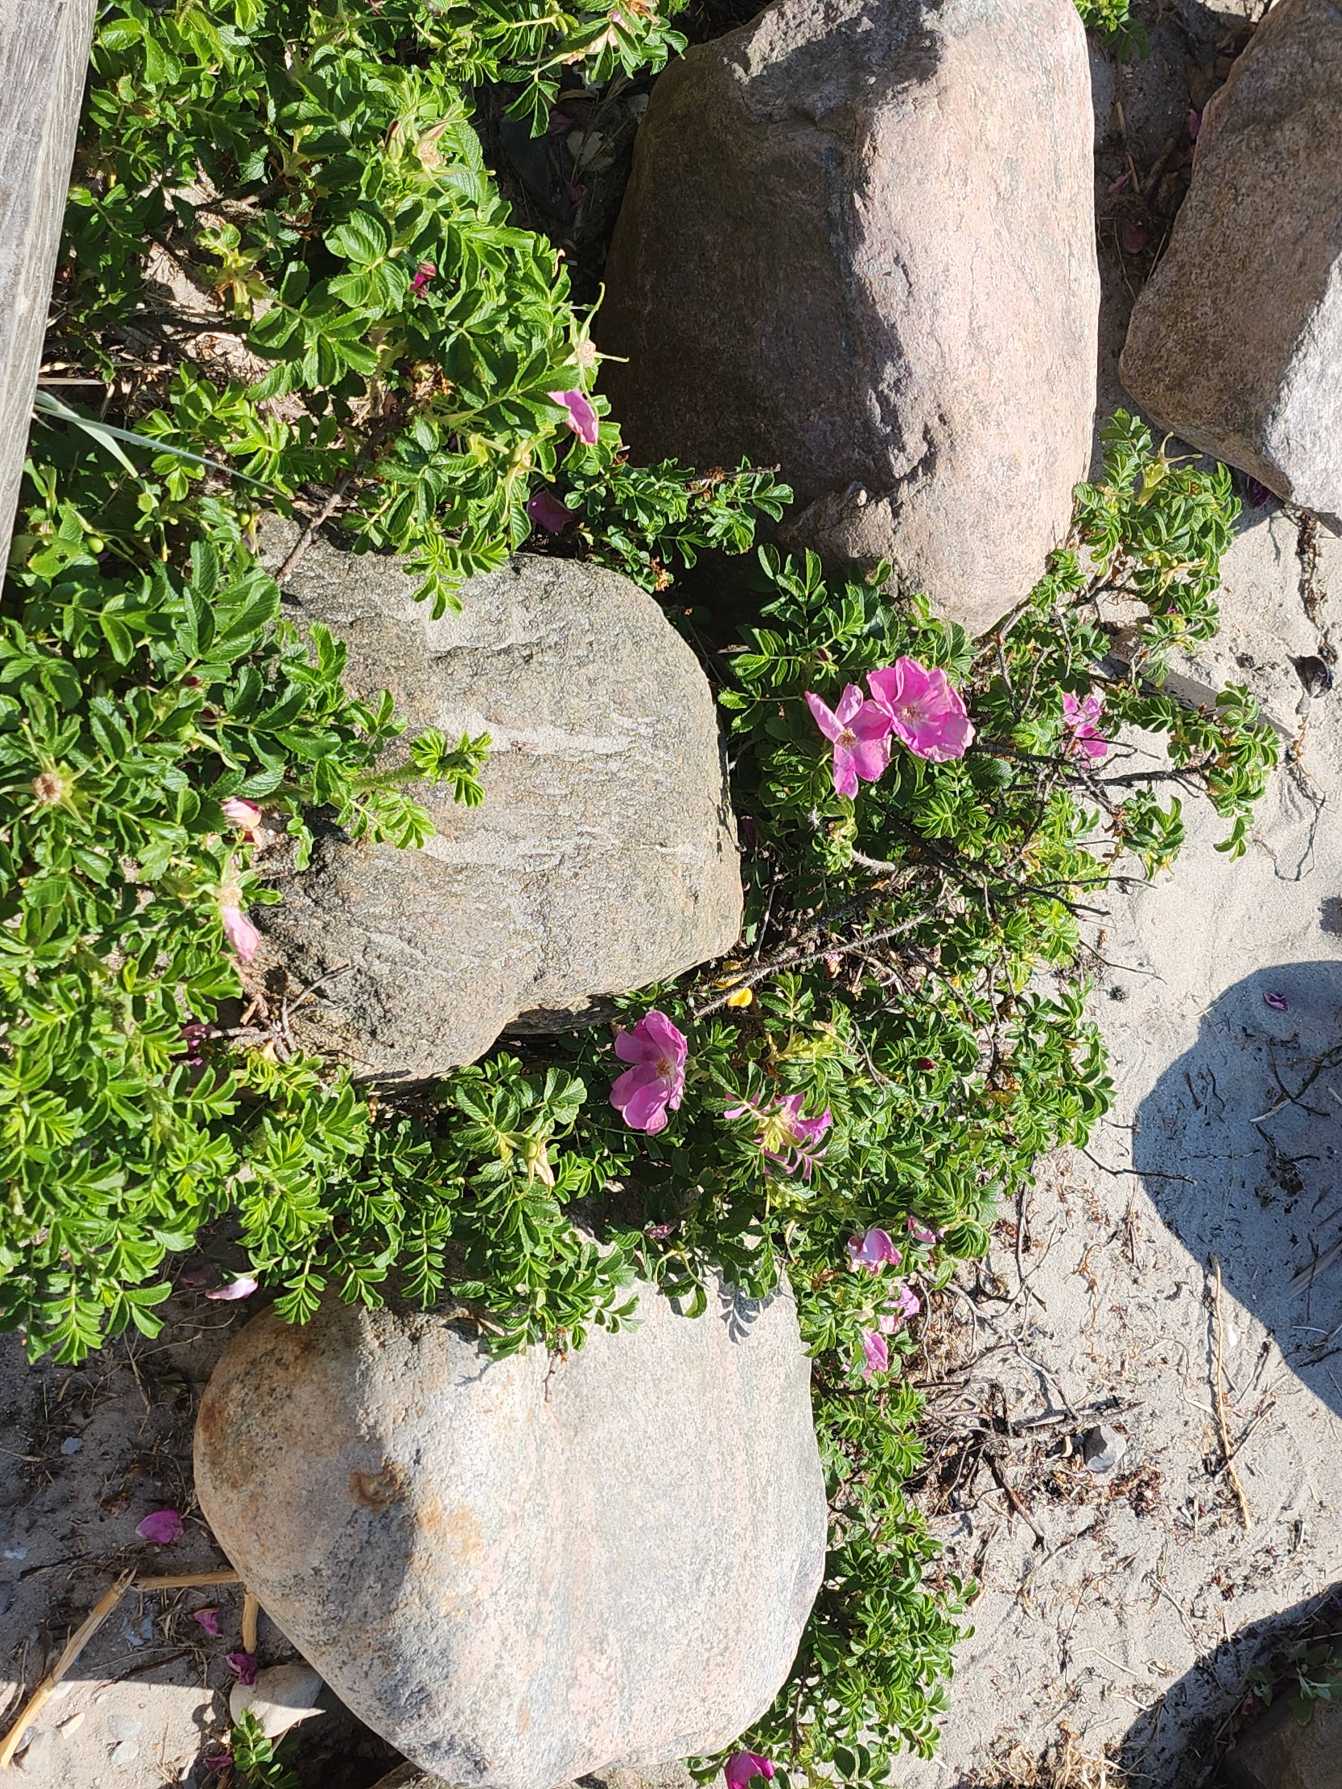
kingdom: Plantae
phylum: Tracheophyta
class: Magnoliopsida
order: Rosales
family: Rosaceae
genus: Rosa
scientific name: Rosa rugosa
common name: Rynket rose
